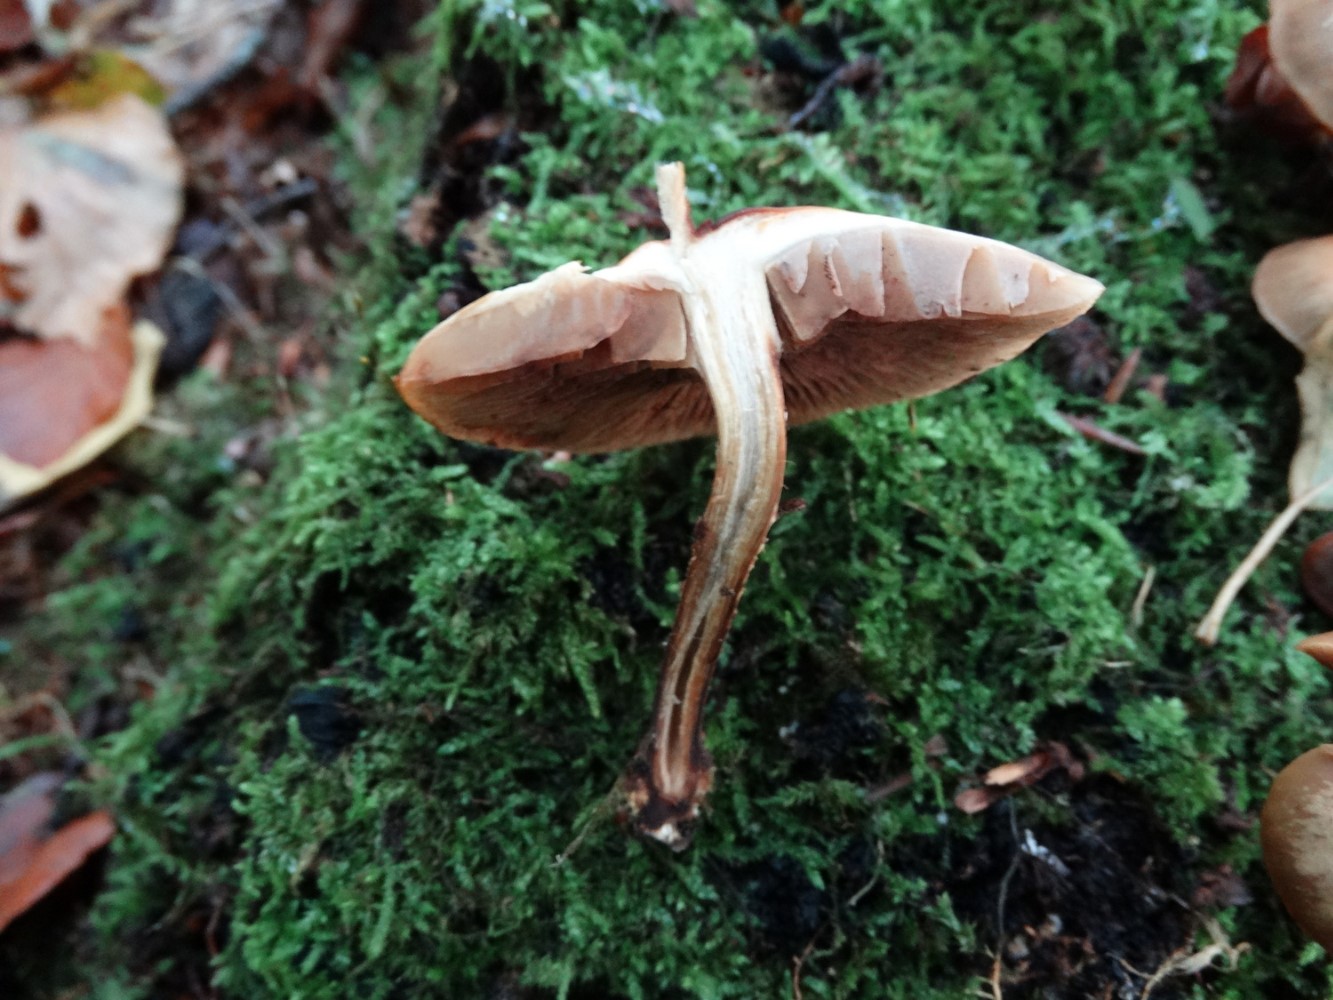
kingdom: Fungi
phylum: Basidiomycota
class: Agaricomycetes
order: Agaricales
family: Strophariaceae
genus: Kuehneromyces
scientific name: Kuehneromyces mutabilis
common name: foranderlig skælhat
